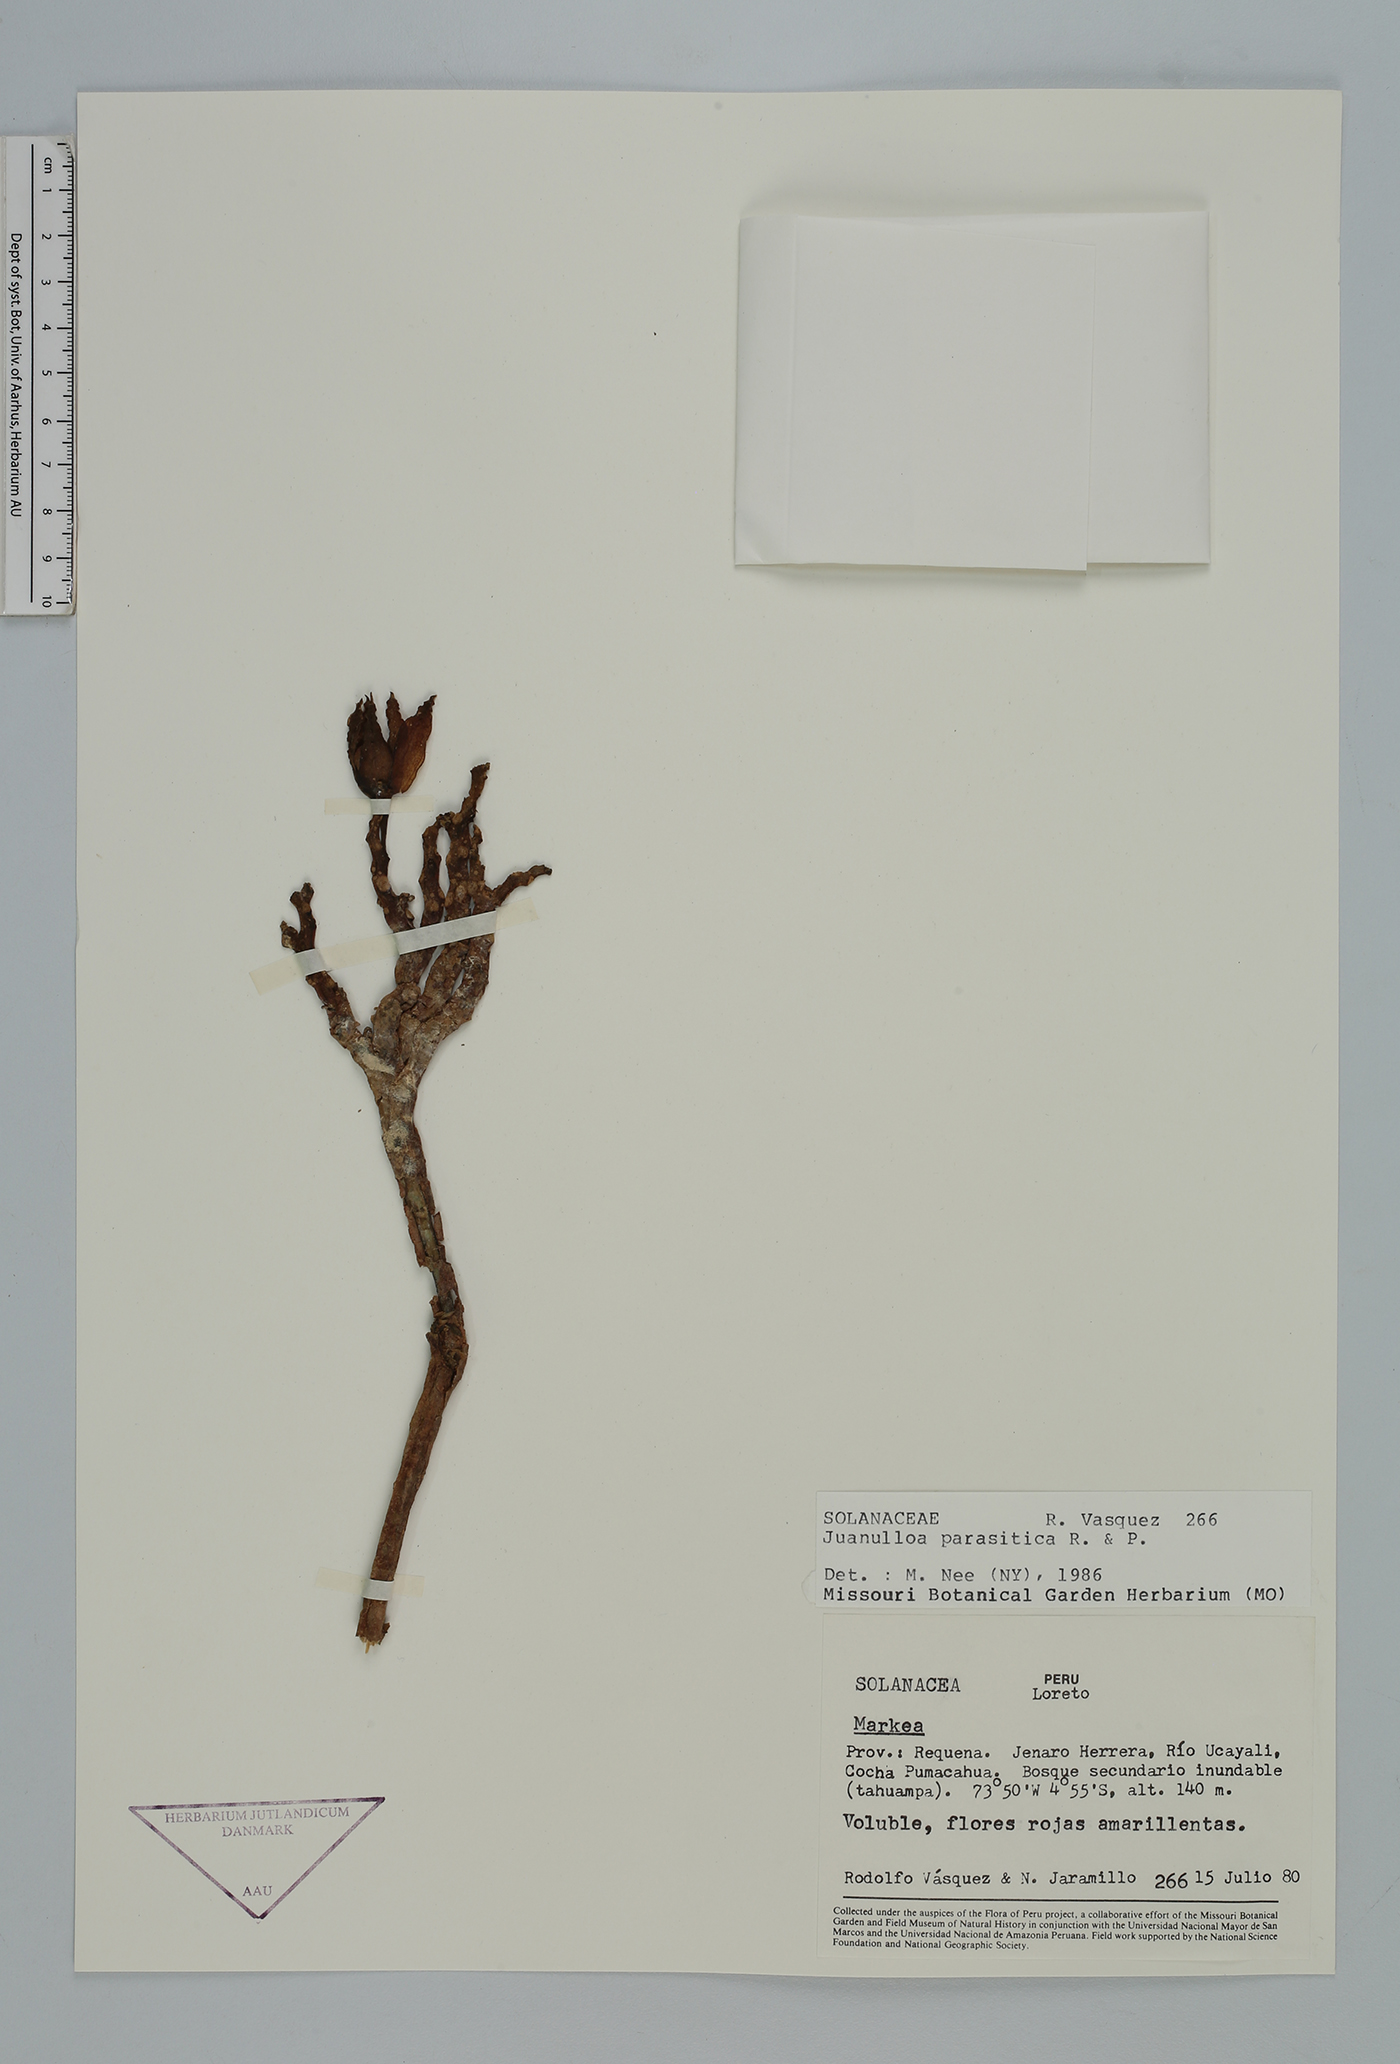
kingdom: Plantae
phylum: Tracheophyta
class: Magnoliopsida
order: Solanales
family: Solanaceae
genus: Juanulloa
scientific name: Juanulloa parasitica
